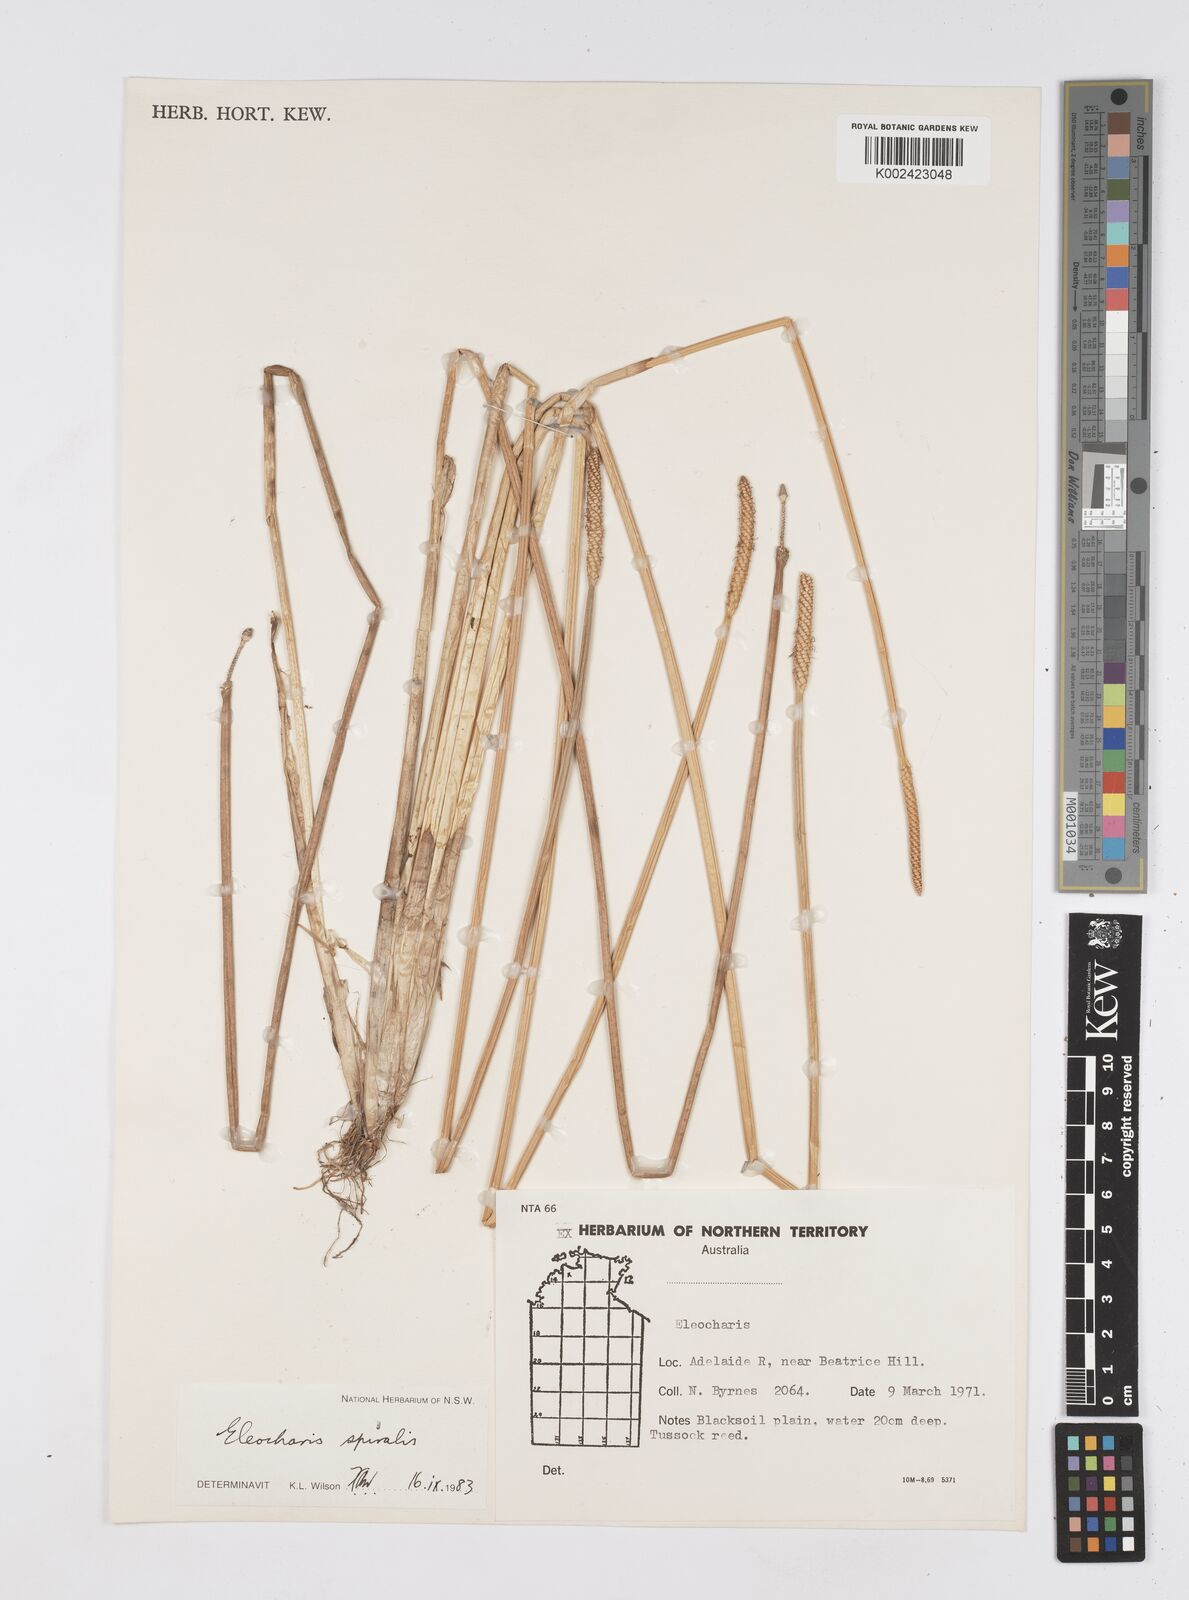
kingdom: Plantae
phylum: Tracheophyta
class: Liliopsida
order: Poales
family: Cyperaceae
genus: Eleocharis
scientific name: Eleocharis spiralis
